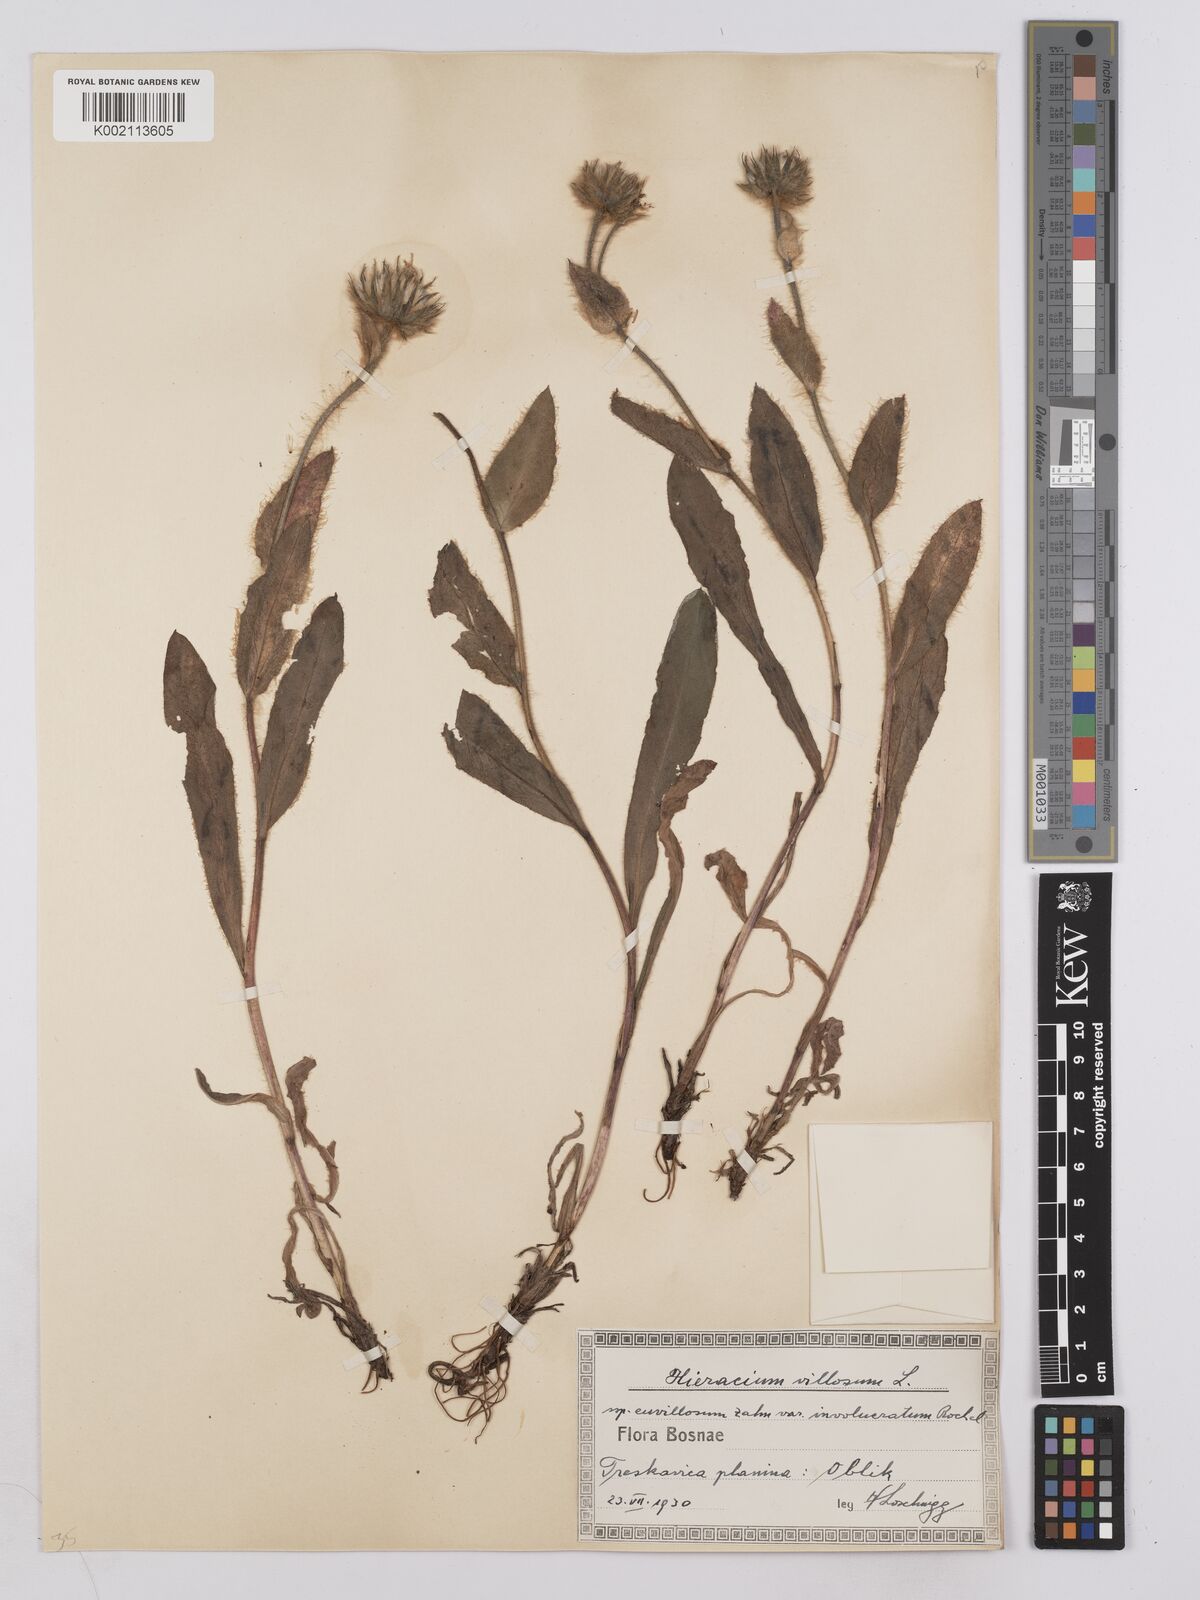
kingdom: Plantae
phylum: Tracheophyta
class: Magnoliopsida
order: Asterales
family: Asteraceae
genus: Hieracium
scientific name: Hieracium villosum
